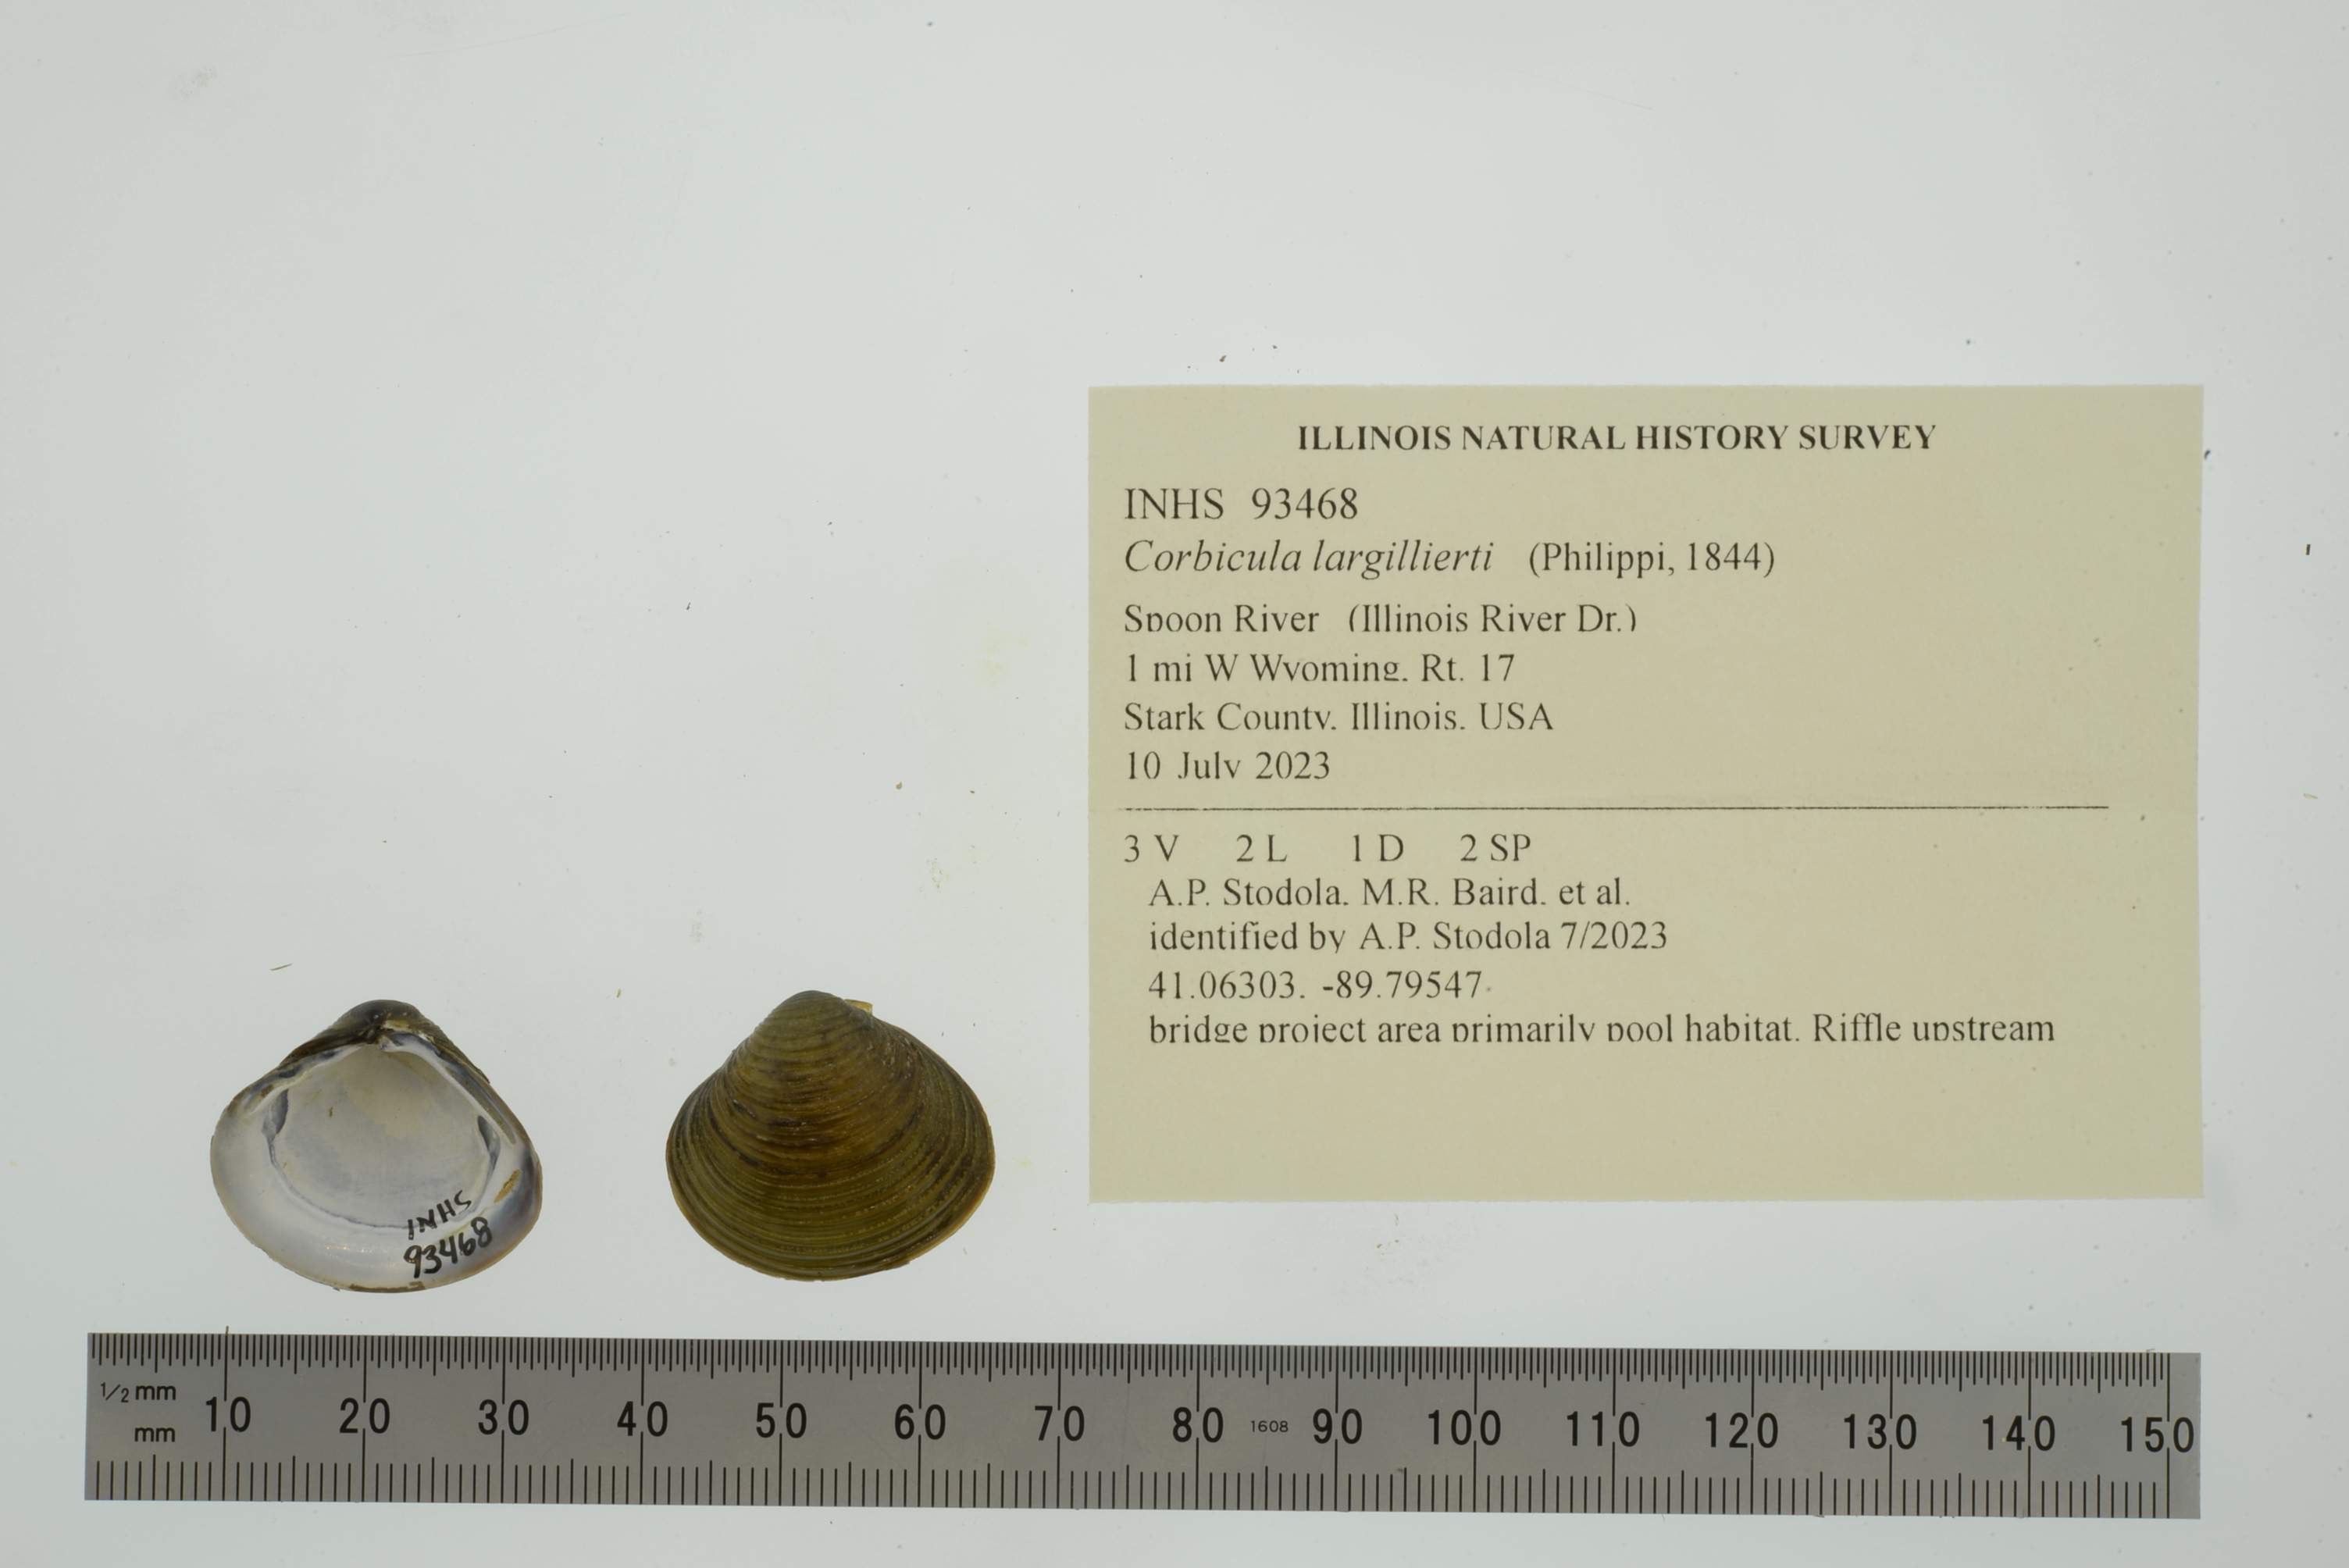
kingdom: Animalia
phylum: Mollusca
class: Bivalvia
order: Venerida
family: Cyrenidae
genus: Corbicula
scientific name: Corbicula largillierti
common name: Purple asian clam
